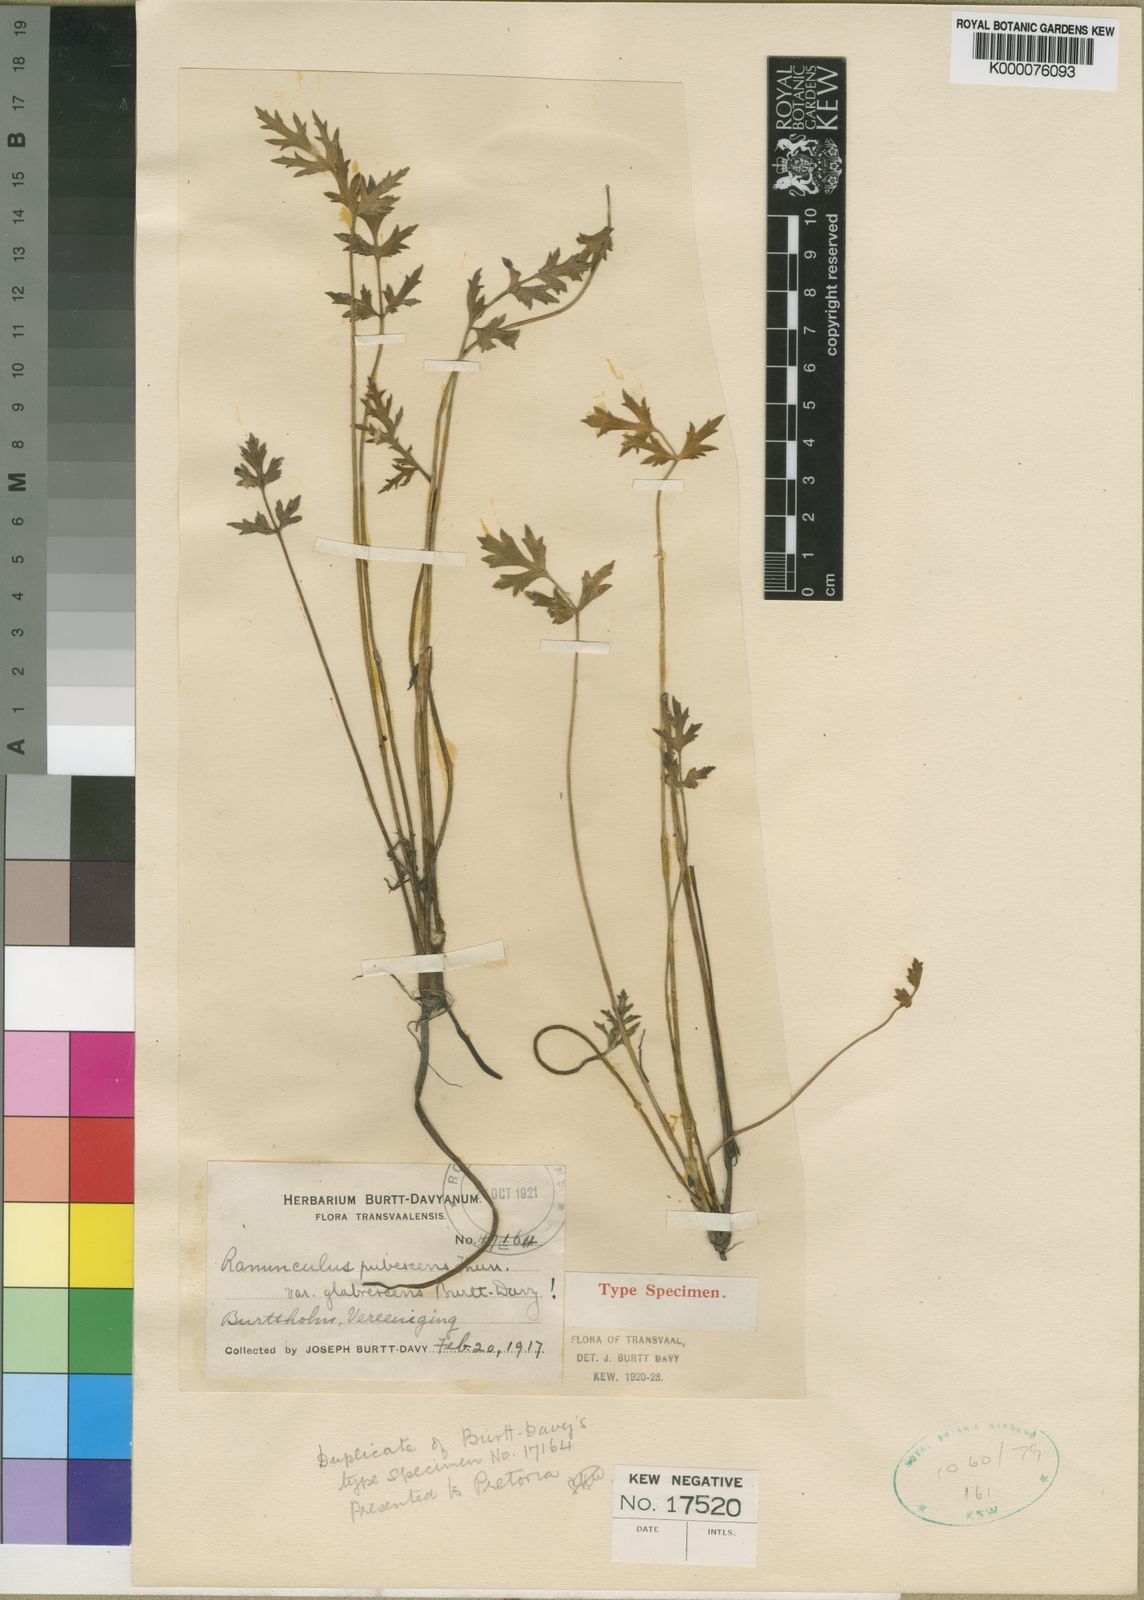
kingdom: Plantae
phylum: Tracheophyta
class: Magnoliopsida
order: Ranunculales
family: Ranunculaceae
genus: Ranunculus
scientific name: Ranunculus multifidus
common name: Wild buttercup
